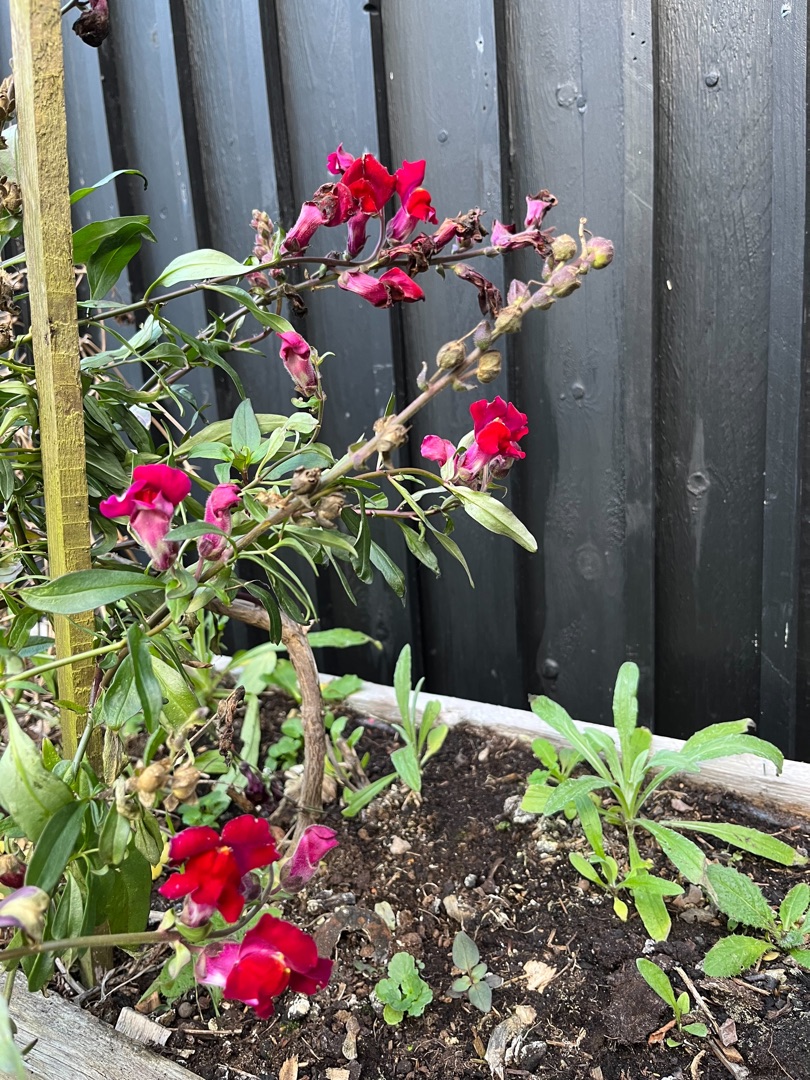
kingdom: Plantae
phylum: Tracheophyta
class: Magnoliopsida
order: Lamiales
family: Plantaginaceae
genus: Antirrhinum
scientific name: Antirrhinum majus
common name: Have-løvemund
